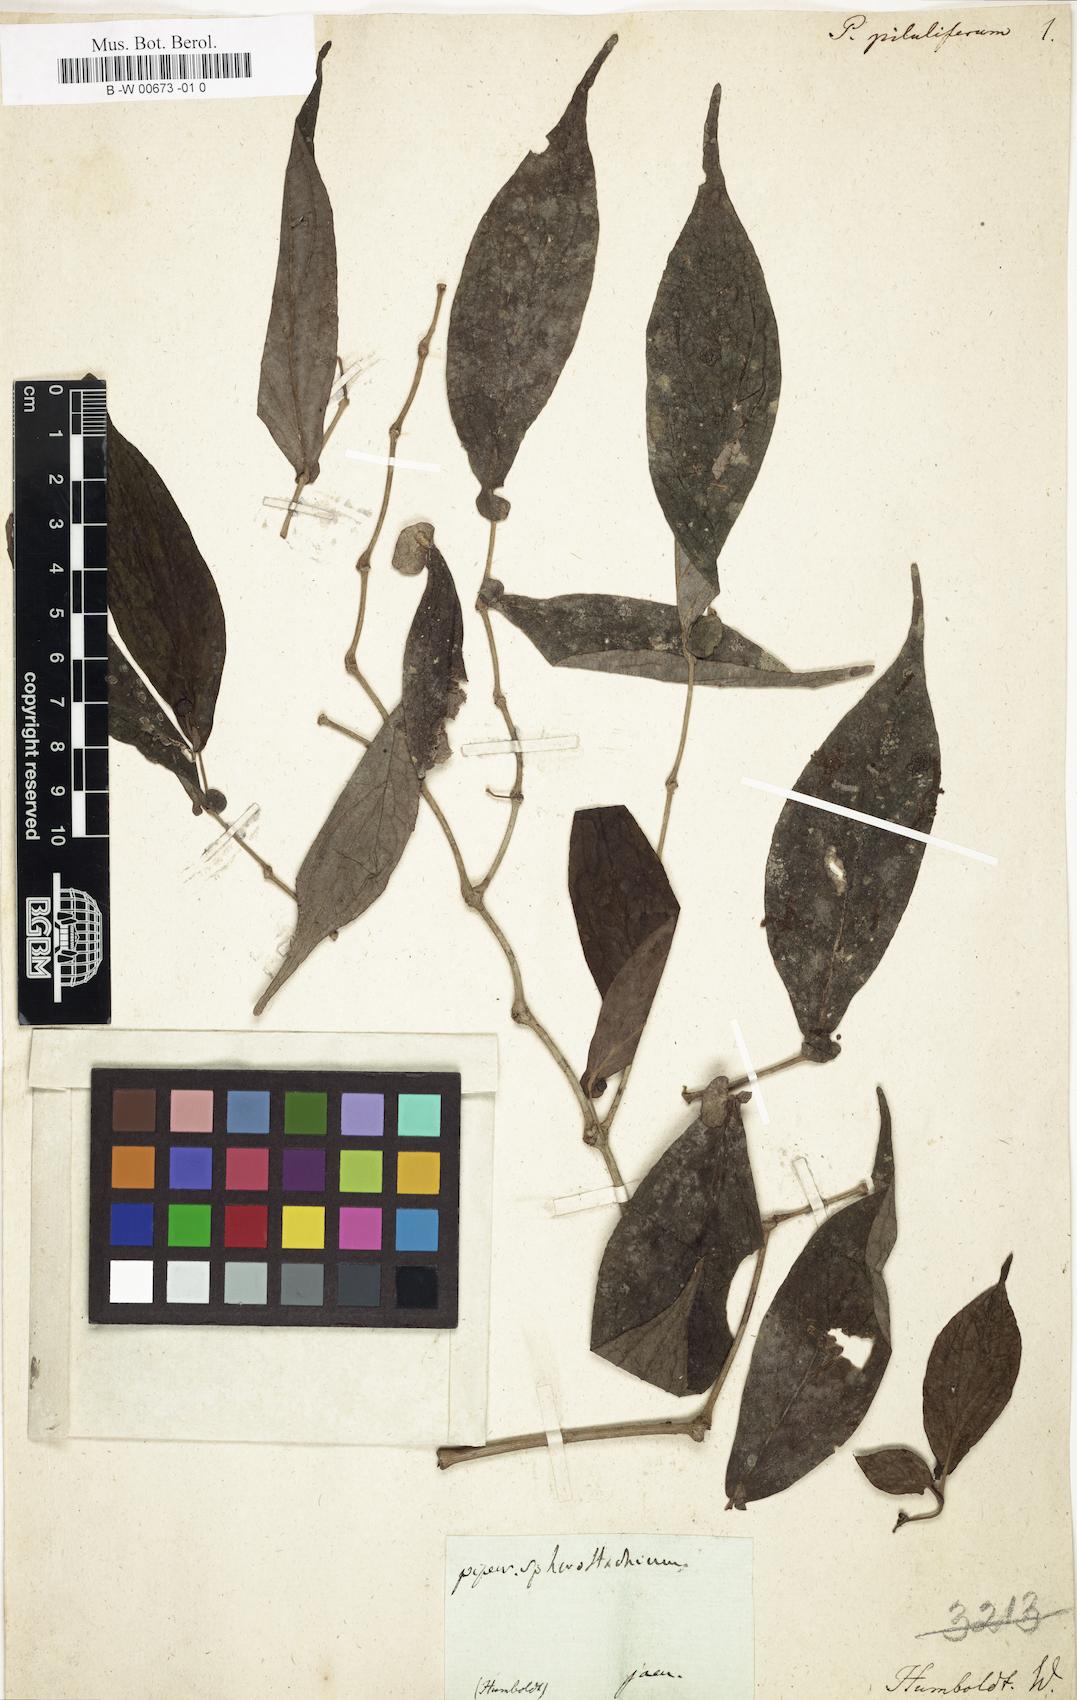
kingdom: Plantae
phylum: Tracheophyta
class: Magnoliopsida
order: Piperales
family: Piperaceae
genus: Piper
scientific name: Piper piluliferum
